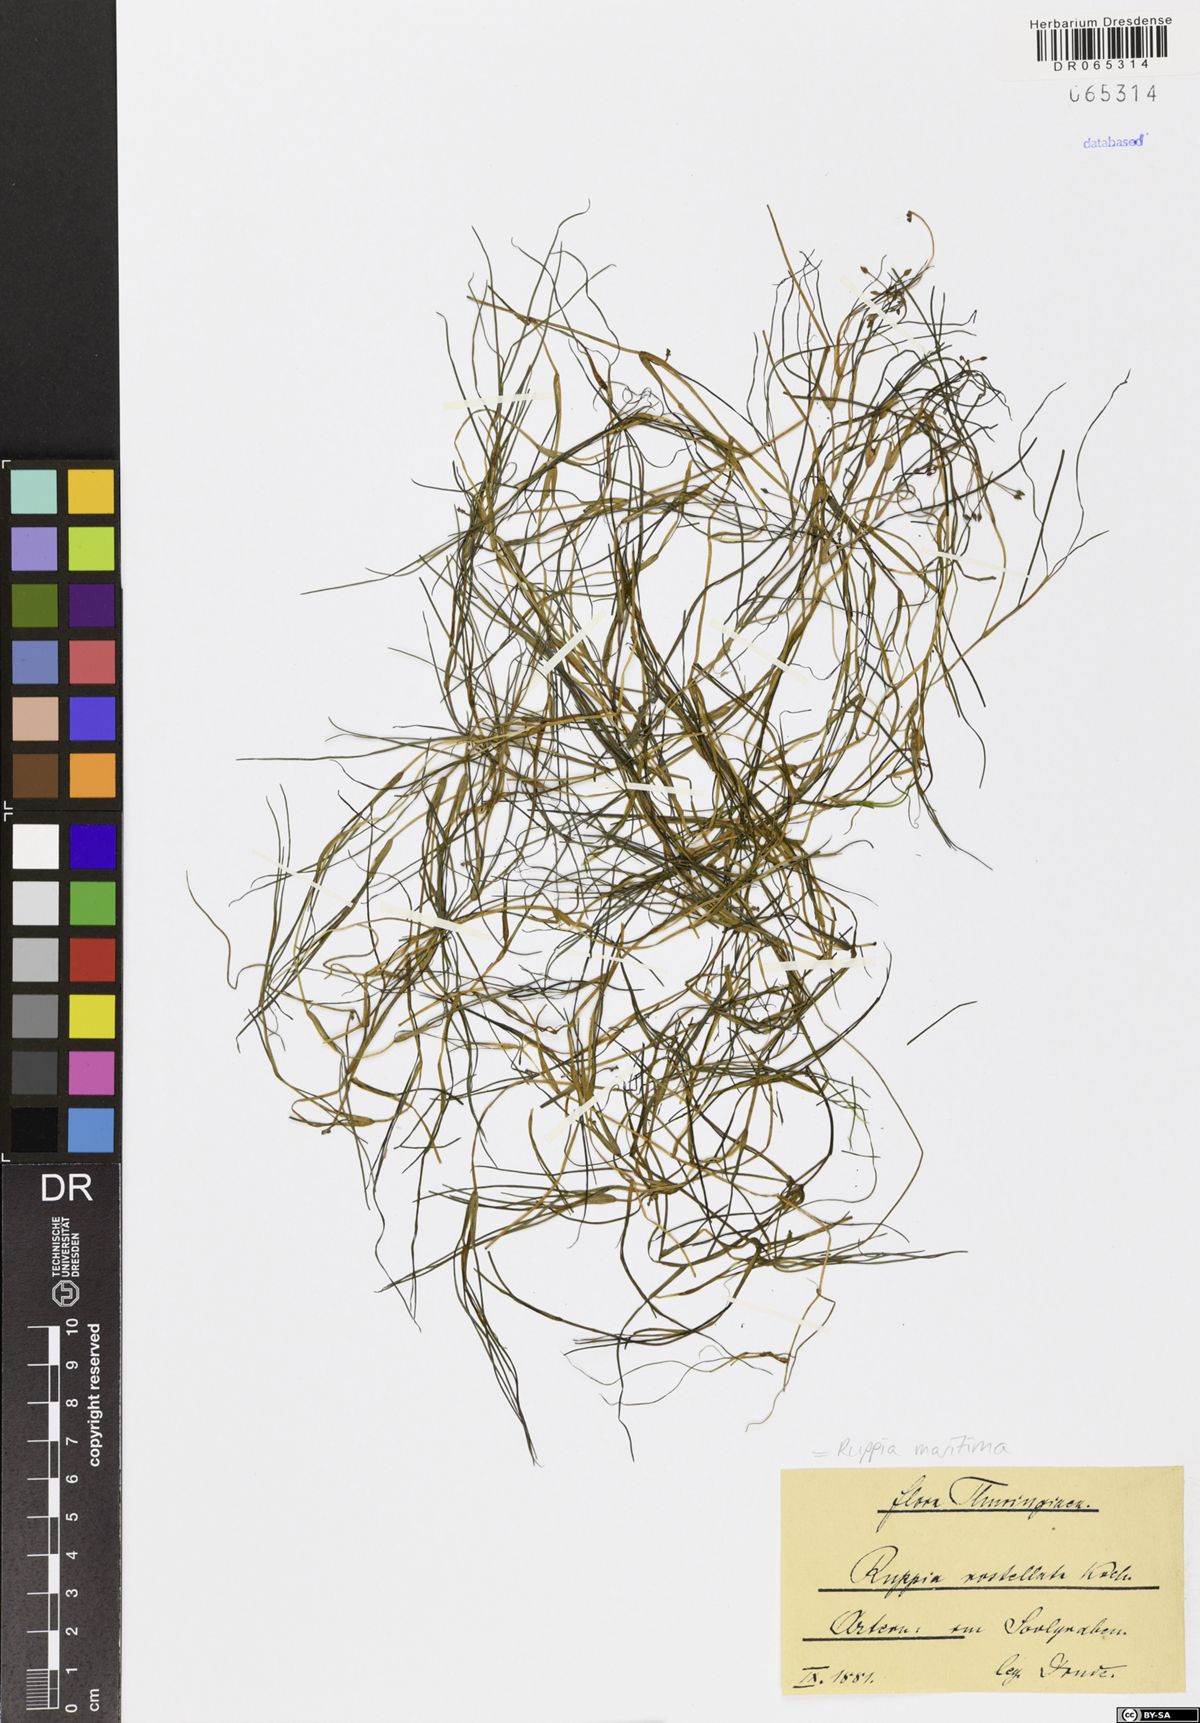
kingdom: Plantae
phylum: Tracheophyta
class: Liliopsida
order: Alismatales
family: Ruppiaceae
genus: Ruppia
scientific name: Ruppia maritima
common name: Beaked tasselweed
